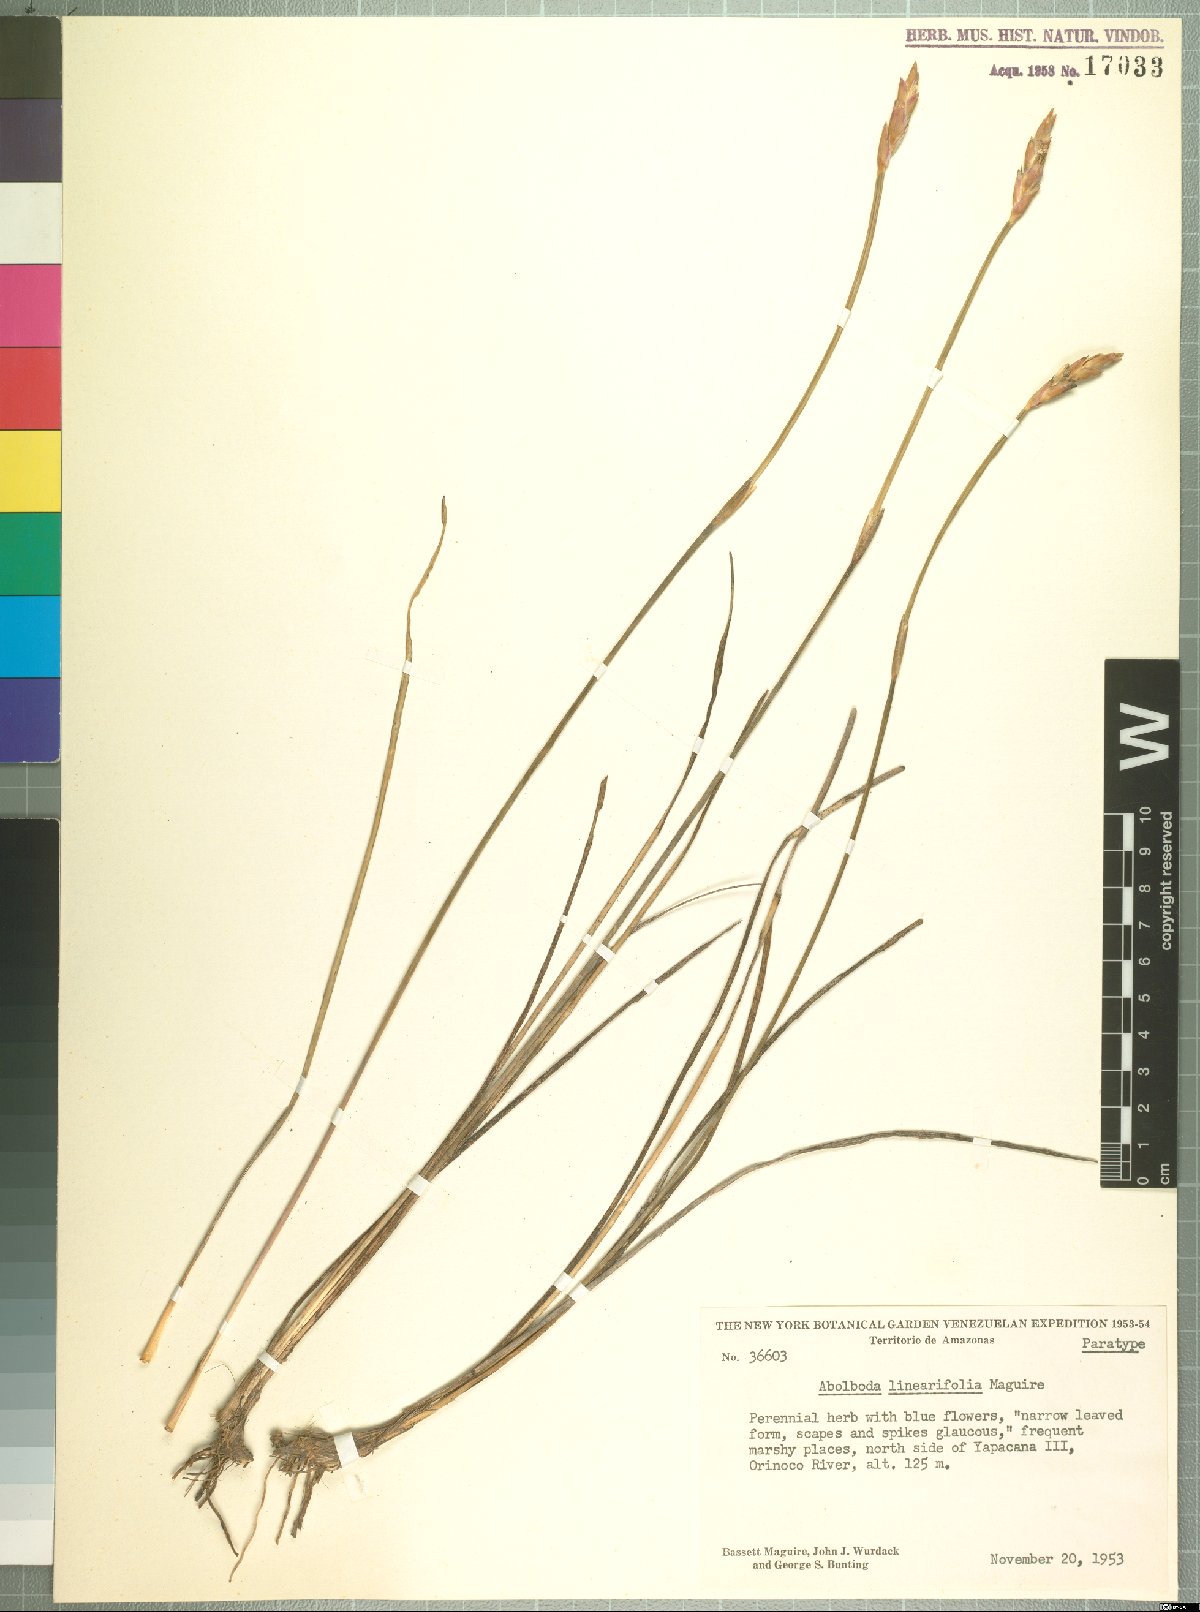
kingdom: Plantae
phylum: Tracheophyta
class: Liliopsida
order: Poales
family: Xyridaceae
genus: Abolboda
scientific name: Abolboda linearifolia
